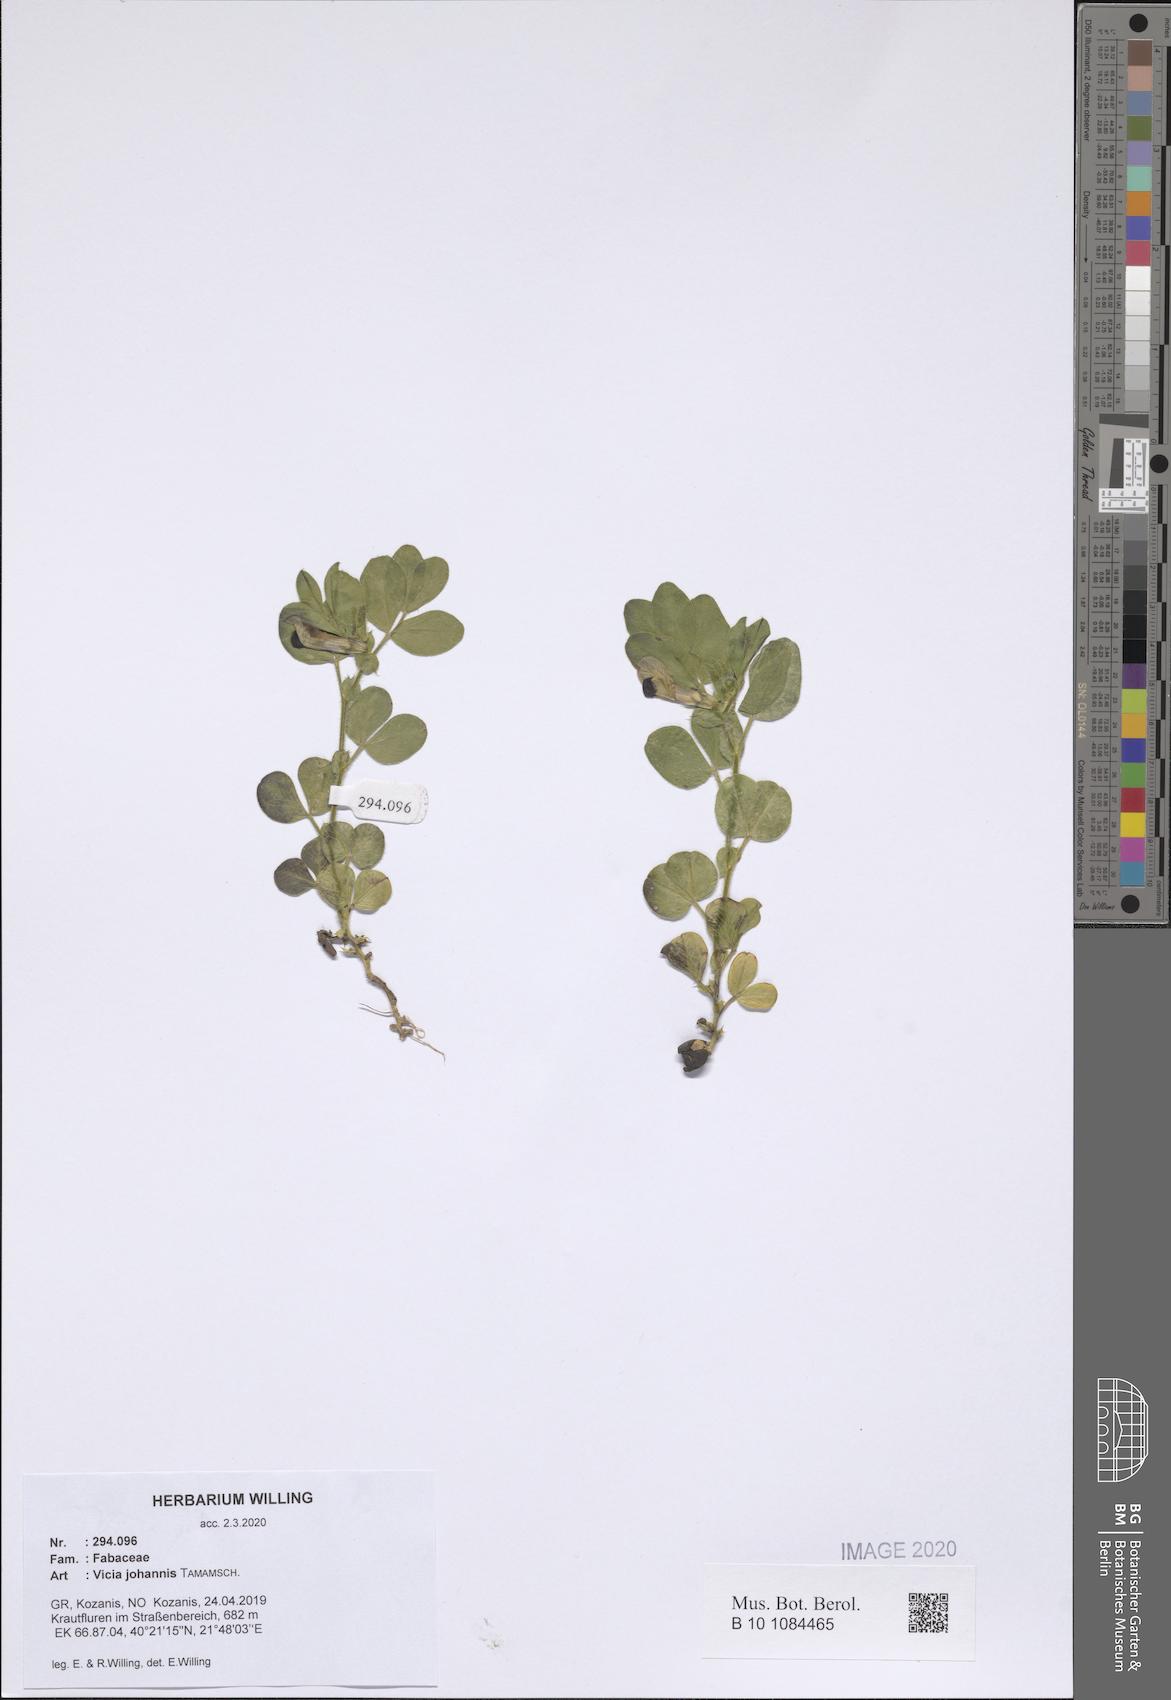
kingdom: Plantae
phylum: Tracheophyta
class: Magnoliopsida
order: Fabales
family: Fabaceae
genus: Vicia
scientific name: Vicia johannis
